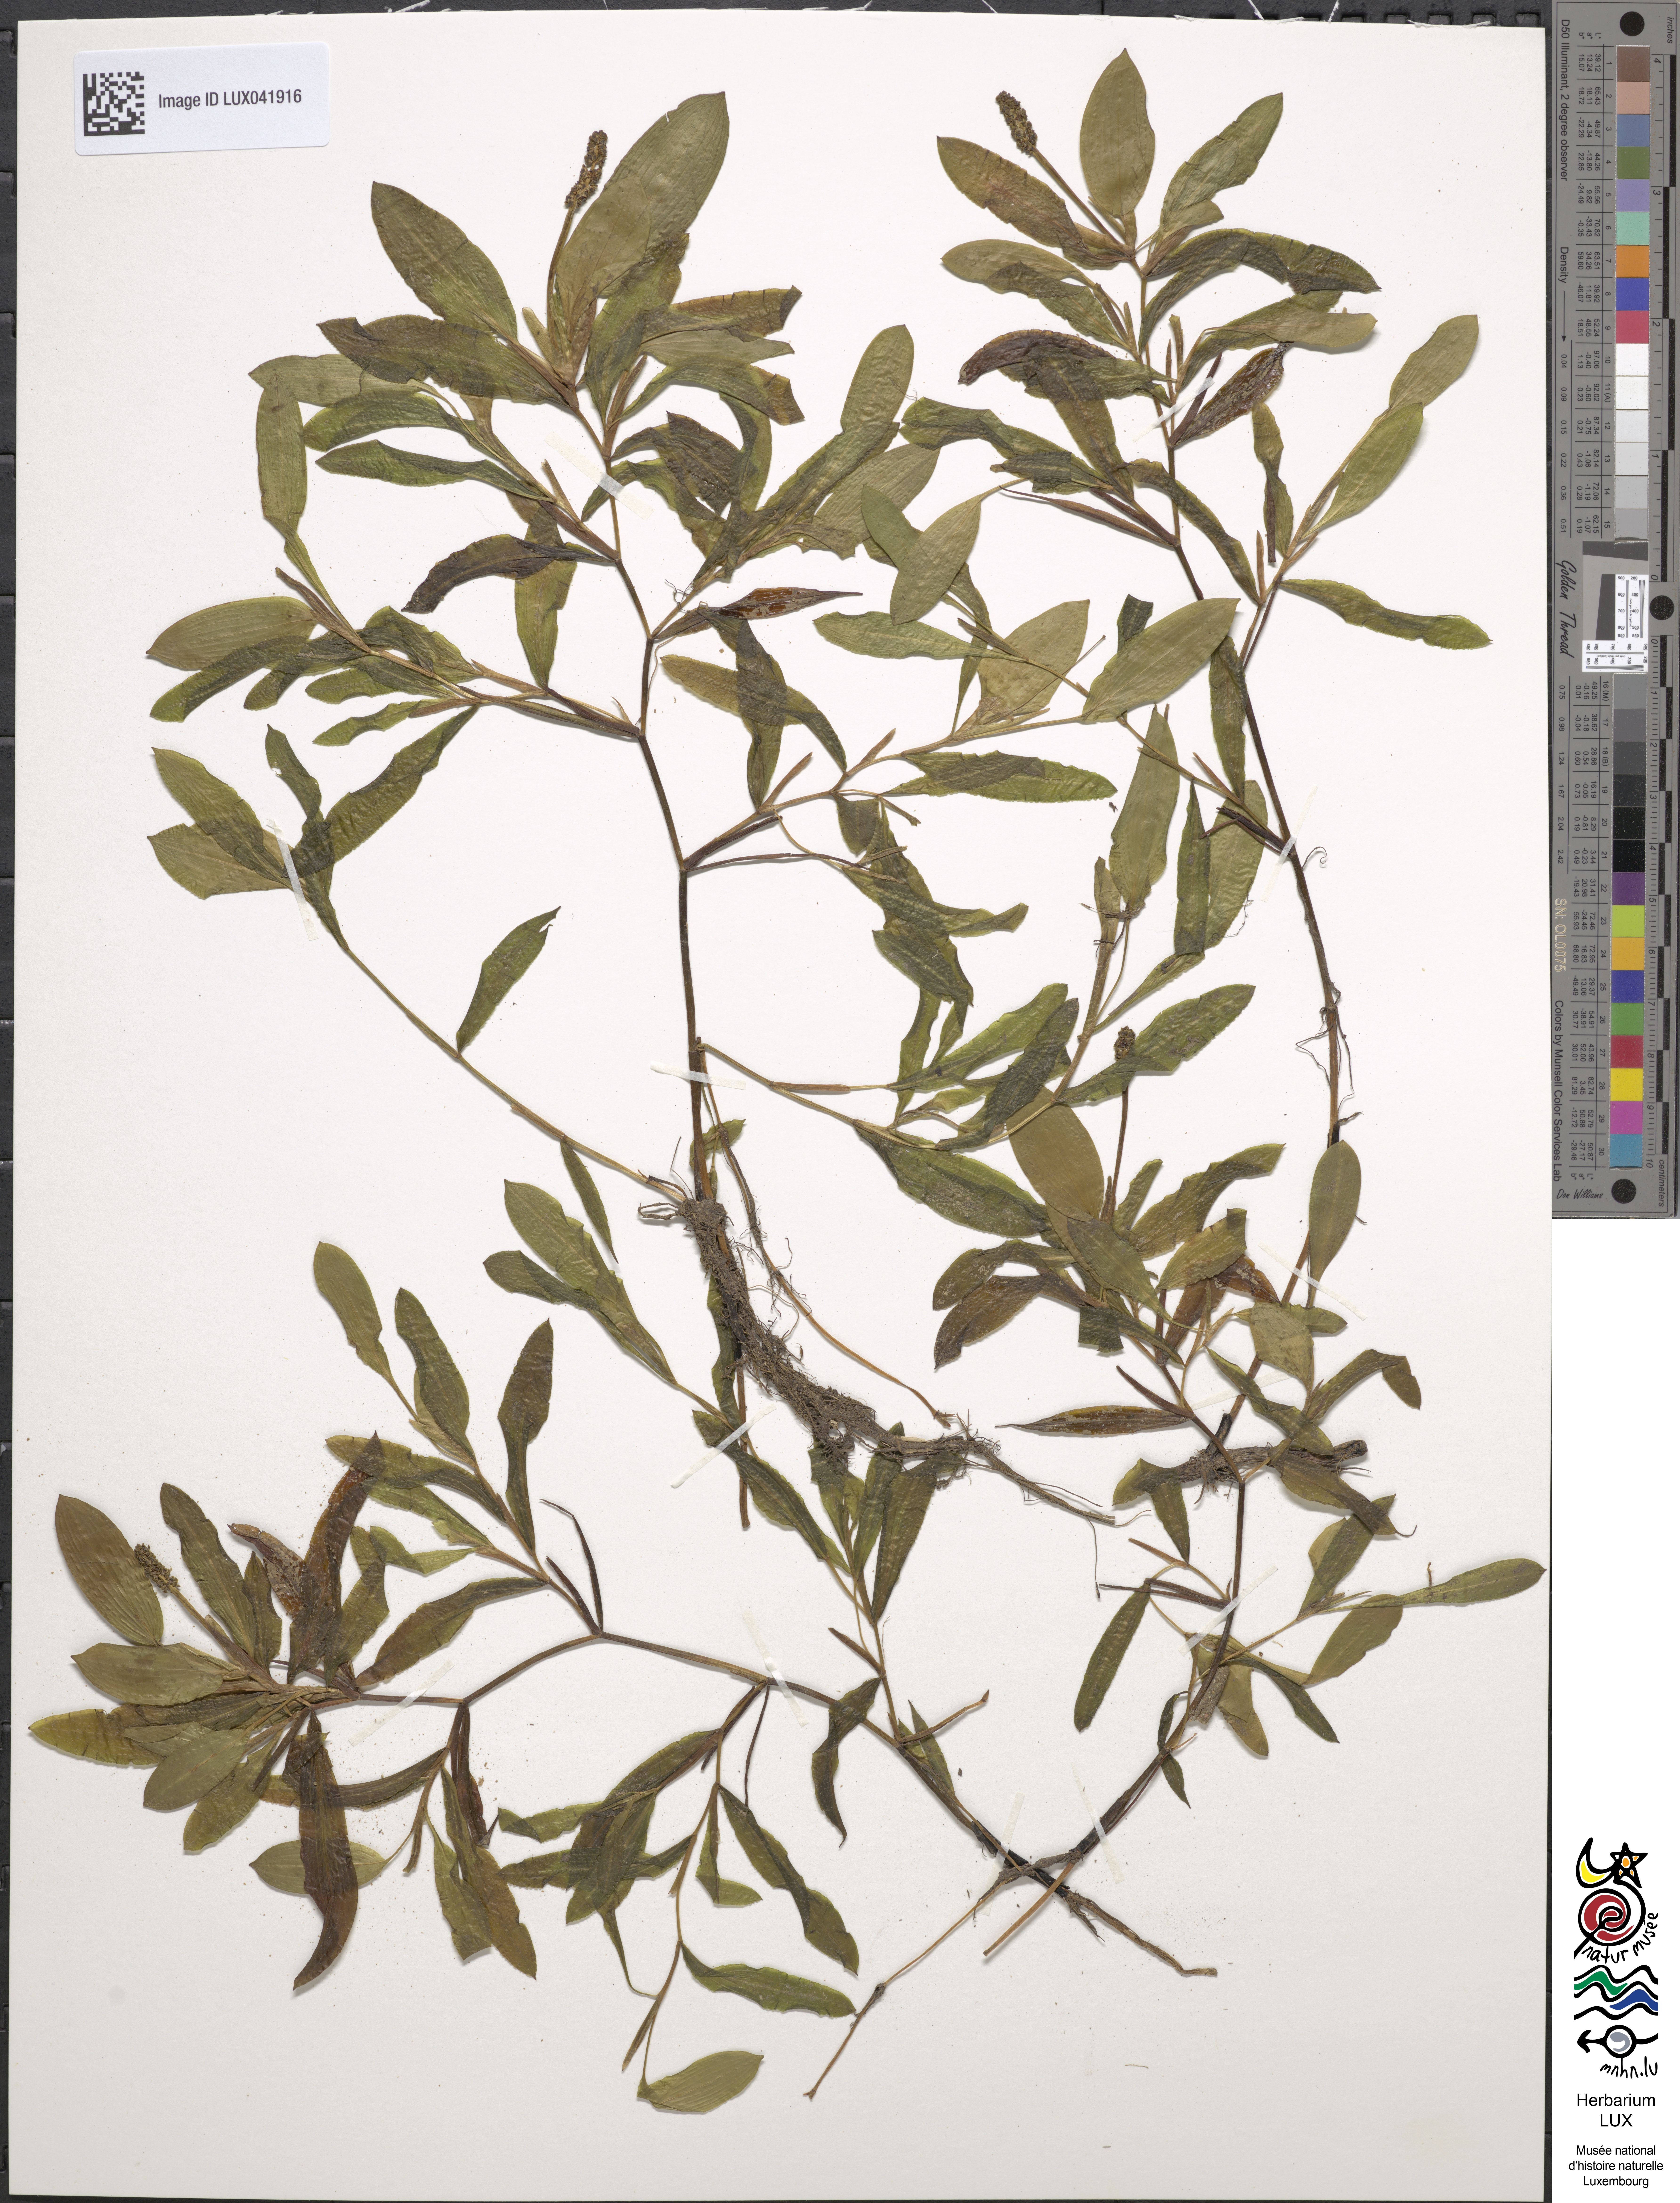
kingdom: Plantae
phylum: Tracheophyta
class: Liliopsida
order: Alismatales
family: Potamogetonaceae
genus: Potamogeton
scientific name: Potamogeton coloratus
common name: Fen pondweed
